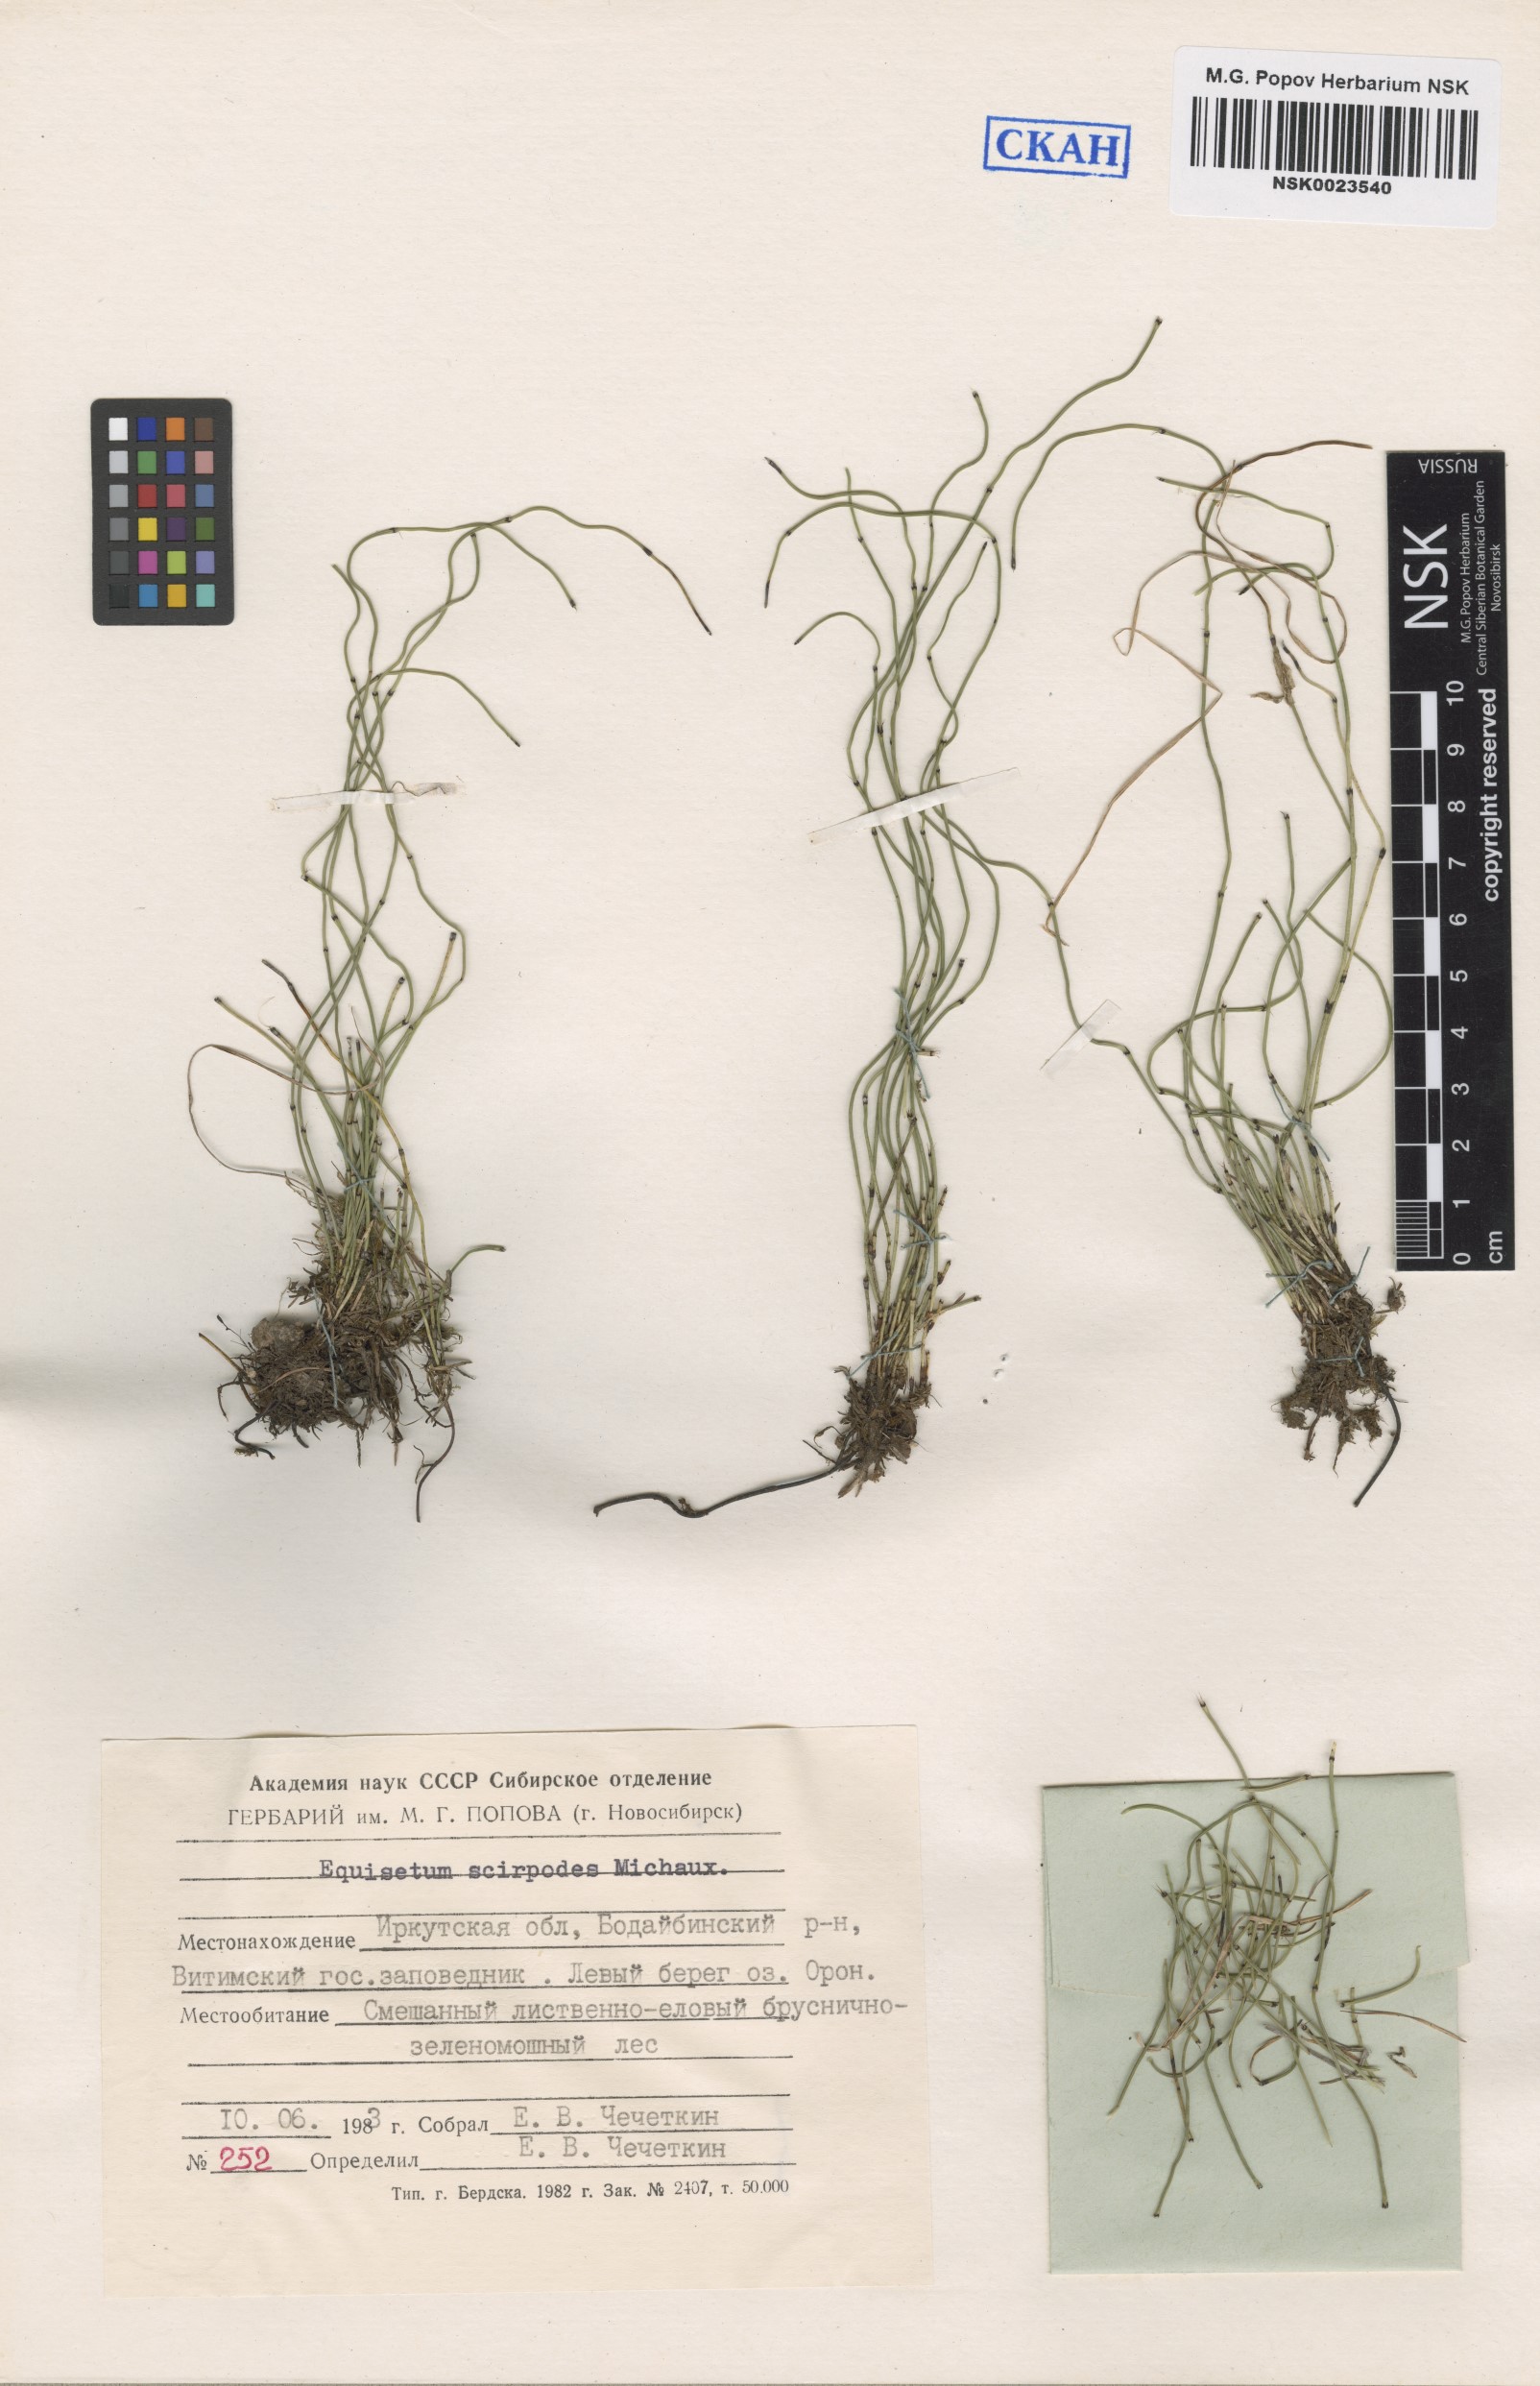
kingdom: Plantae
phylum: Tracheophyta
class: Polypodiopsida
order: Equisetales
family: Equisetaceae
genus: Equisetum
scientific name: Equisetum scirpoides
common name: Delicate horsetail
